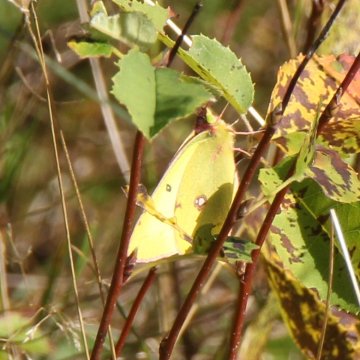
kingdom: Animalia
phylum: Arthropoda
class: Insecta
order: Lepidoptera
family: Pieridae
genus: Colias
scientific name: Colias philodice
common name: Clouded Sulphur
